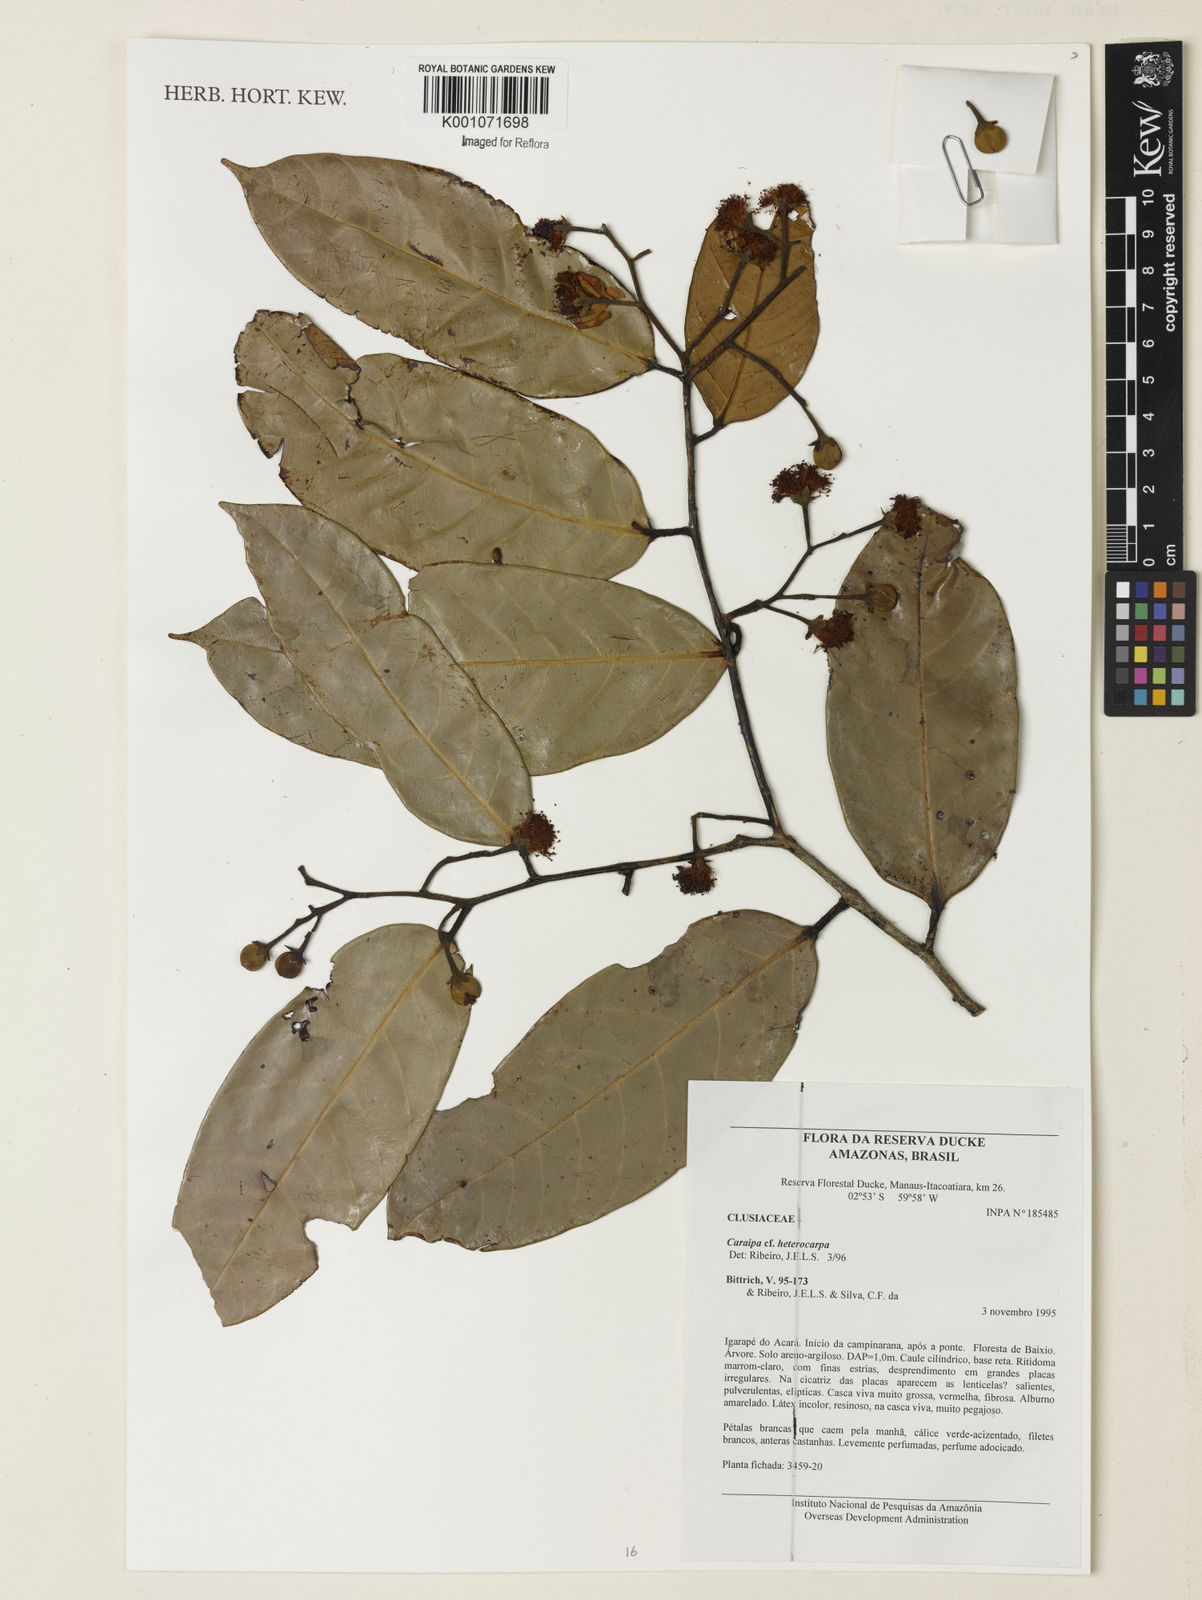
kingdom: Plantae
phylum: Tracheophyta
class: Magnoliopsida
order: Malpighiales
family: Calophyllaceae
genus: Caraipa
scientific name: Caraipa heterocarpa
